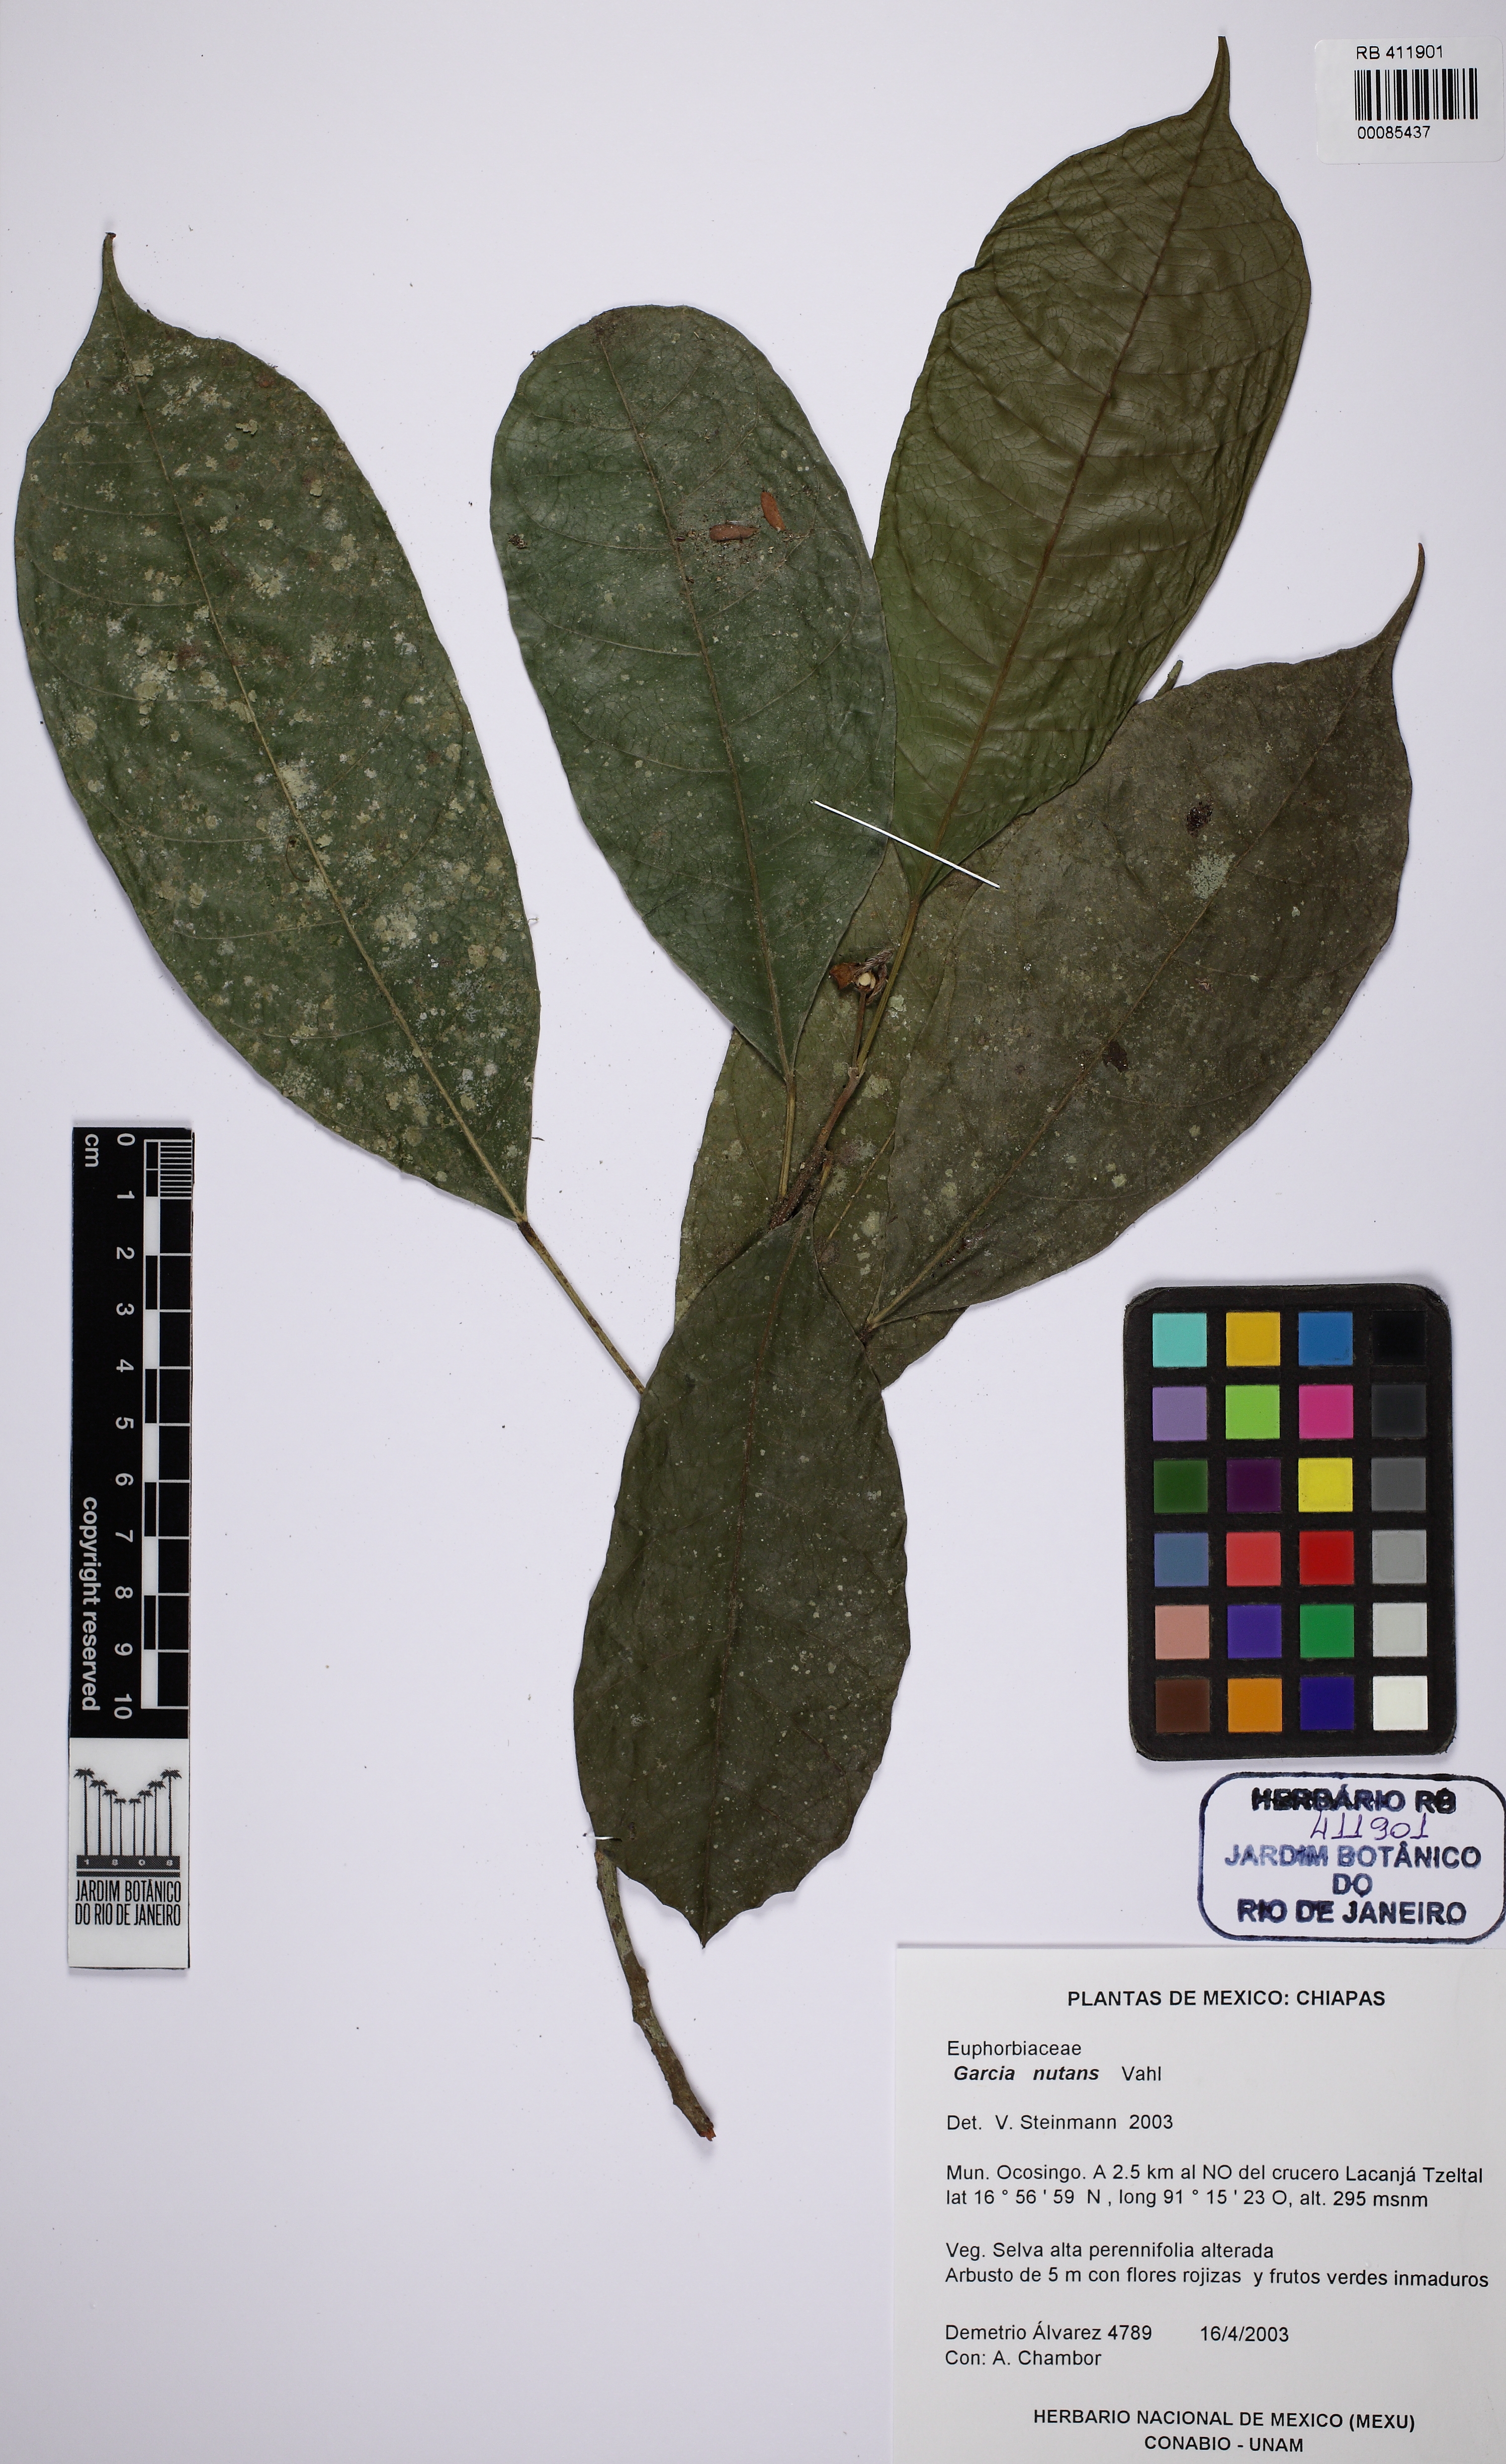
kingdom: Plantae
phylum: Tracheophyta
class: Magnoliopsida
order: Malpighiales
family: Euphorbiaceae
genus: Garcia
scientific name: Garcia nutans
